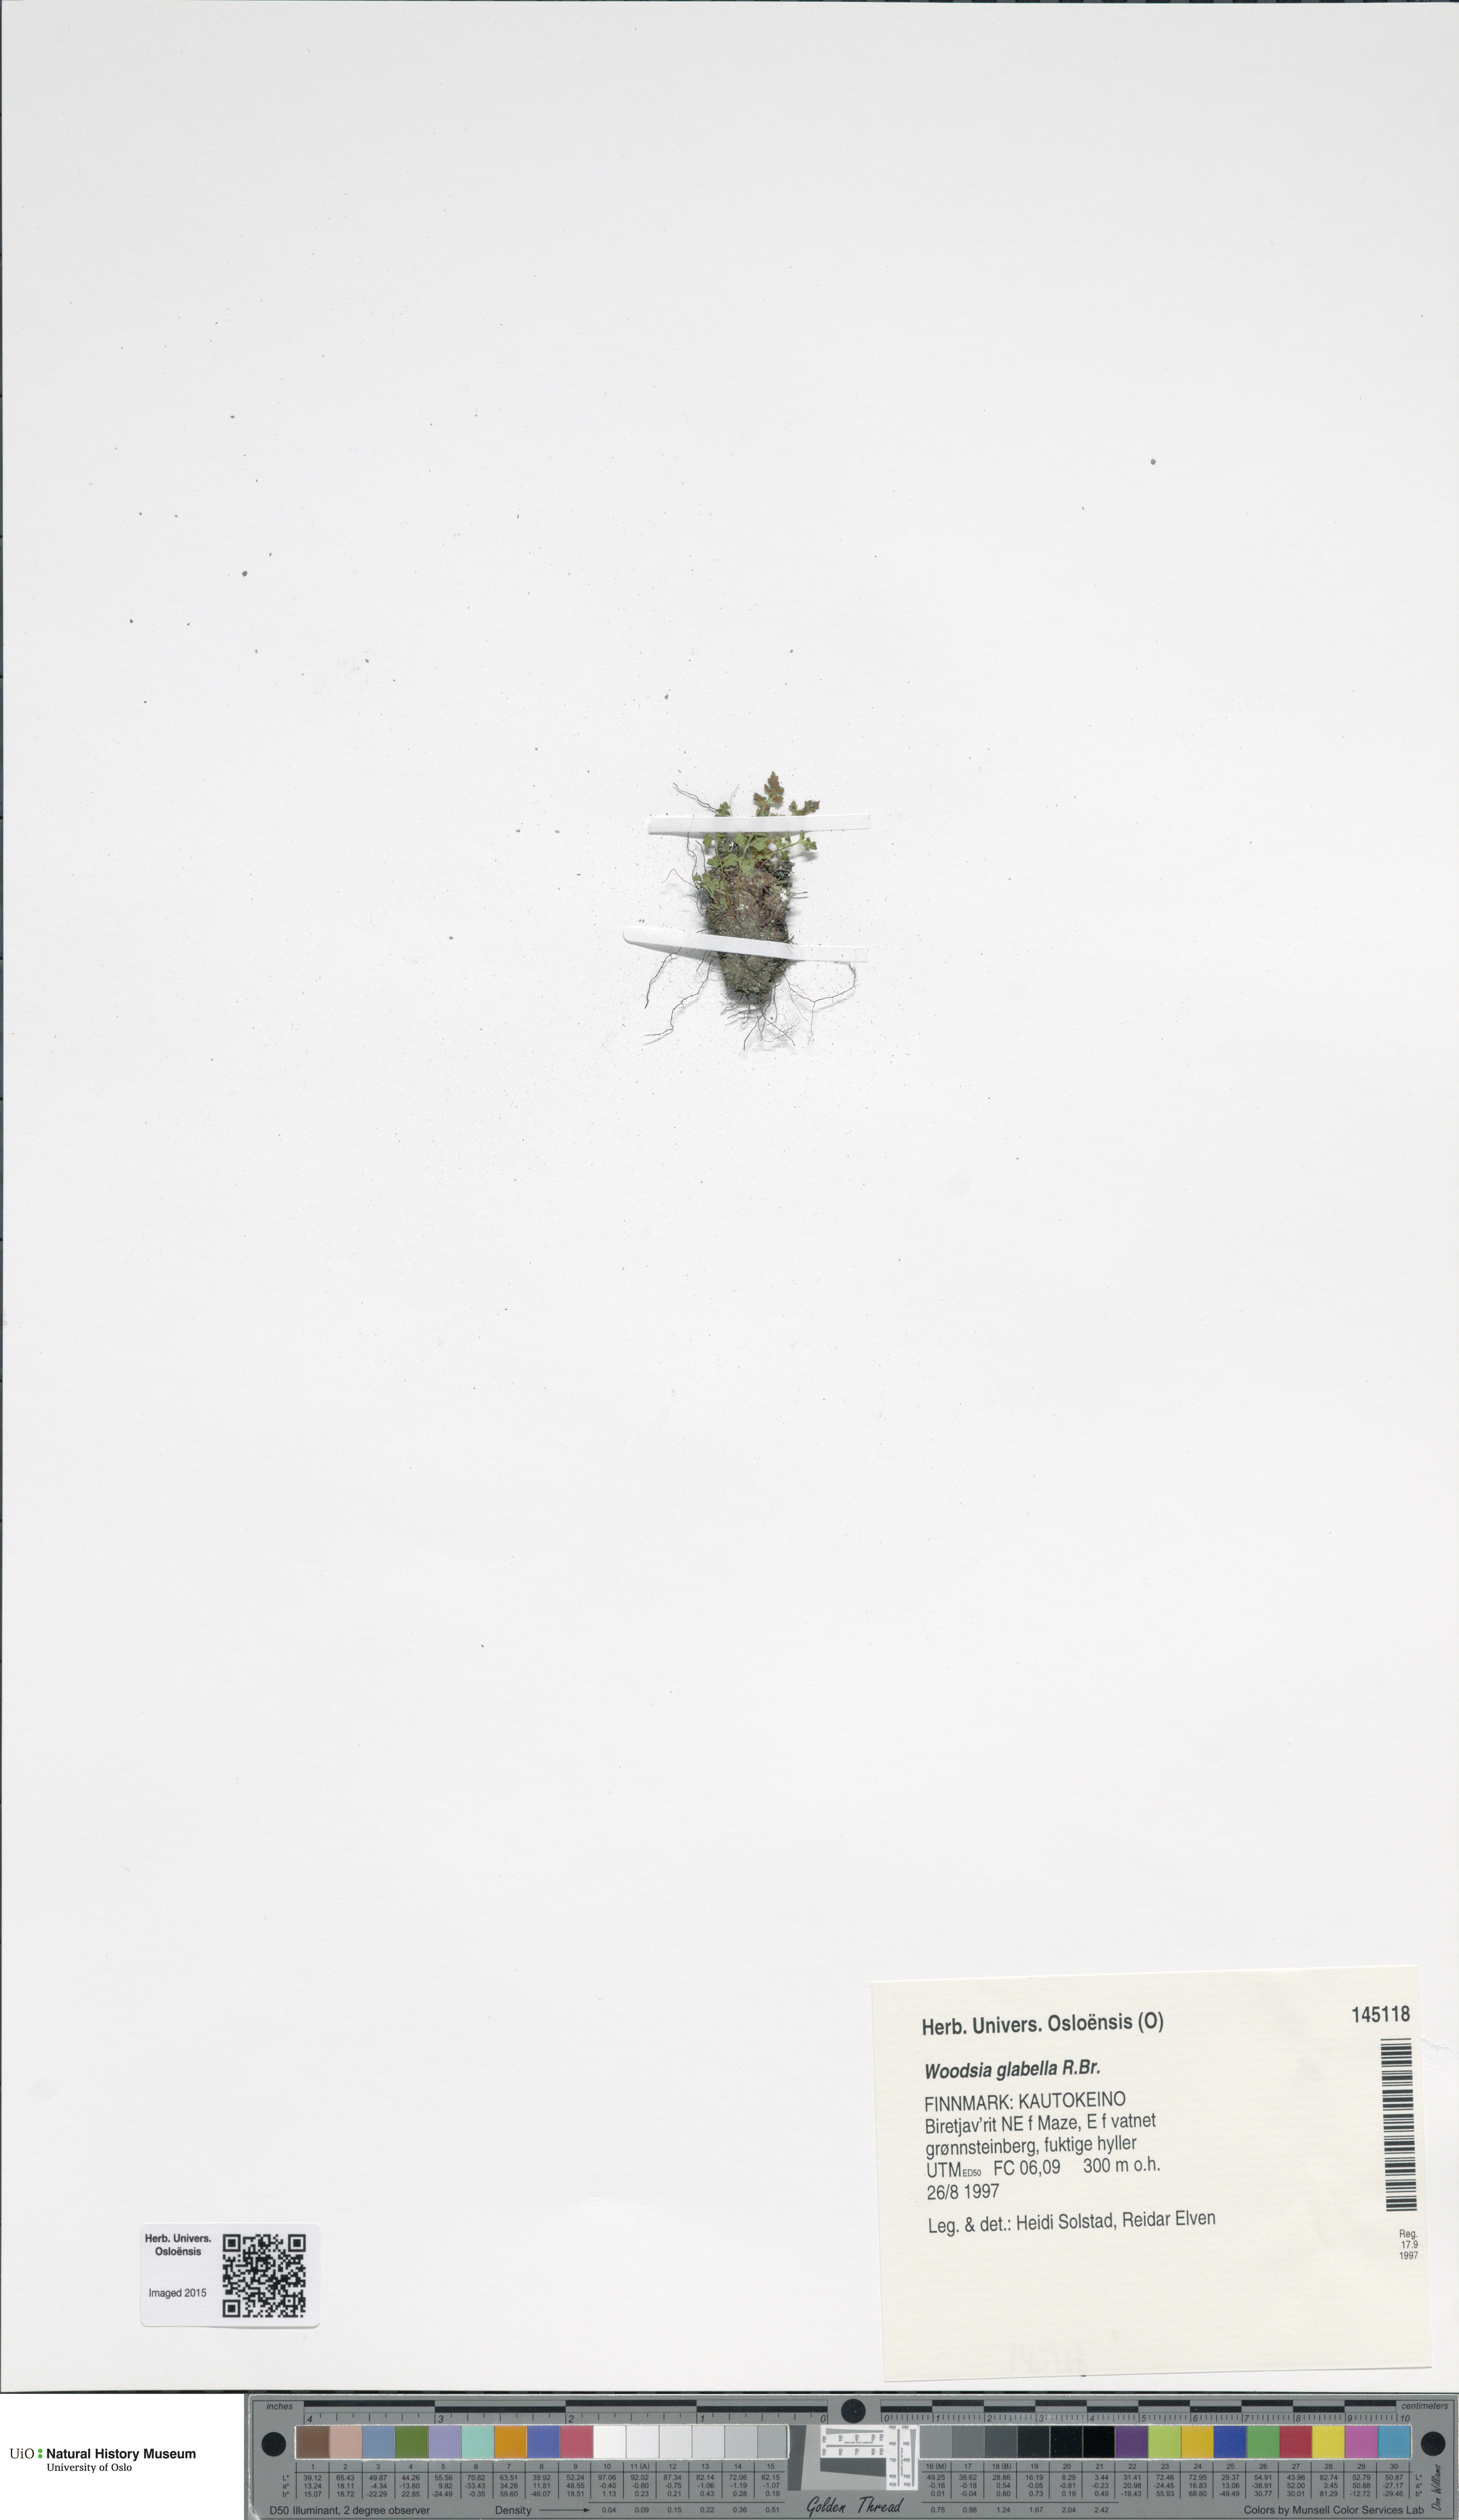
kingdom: Plantae
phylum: Tracheophyta
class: Polypodiopsida
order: Polypodiales
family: Woodsiaceae
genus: Woodsia
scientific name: Woodsia glabella
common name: Smooth woodsia
